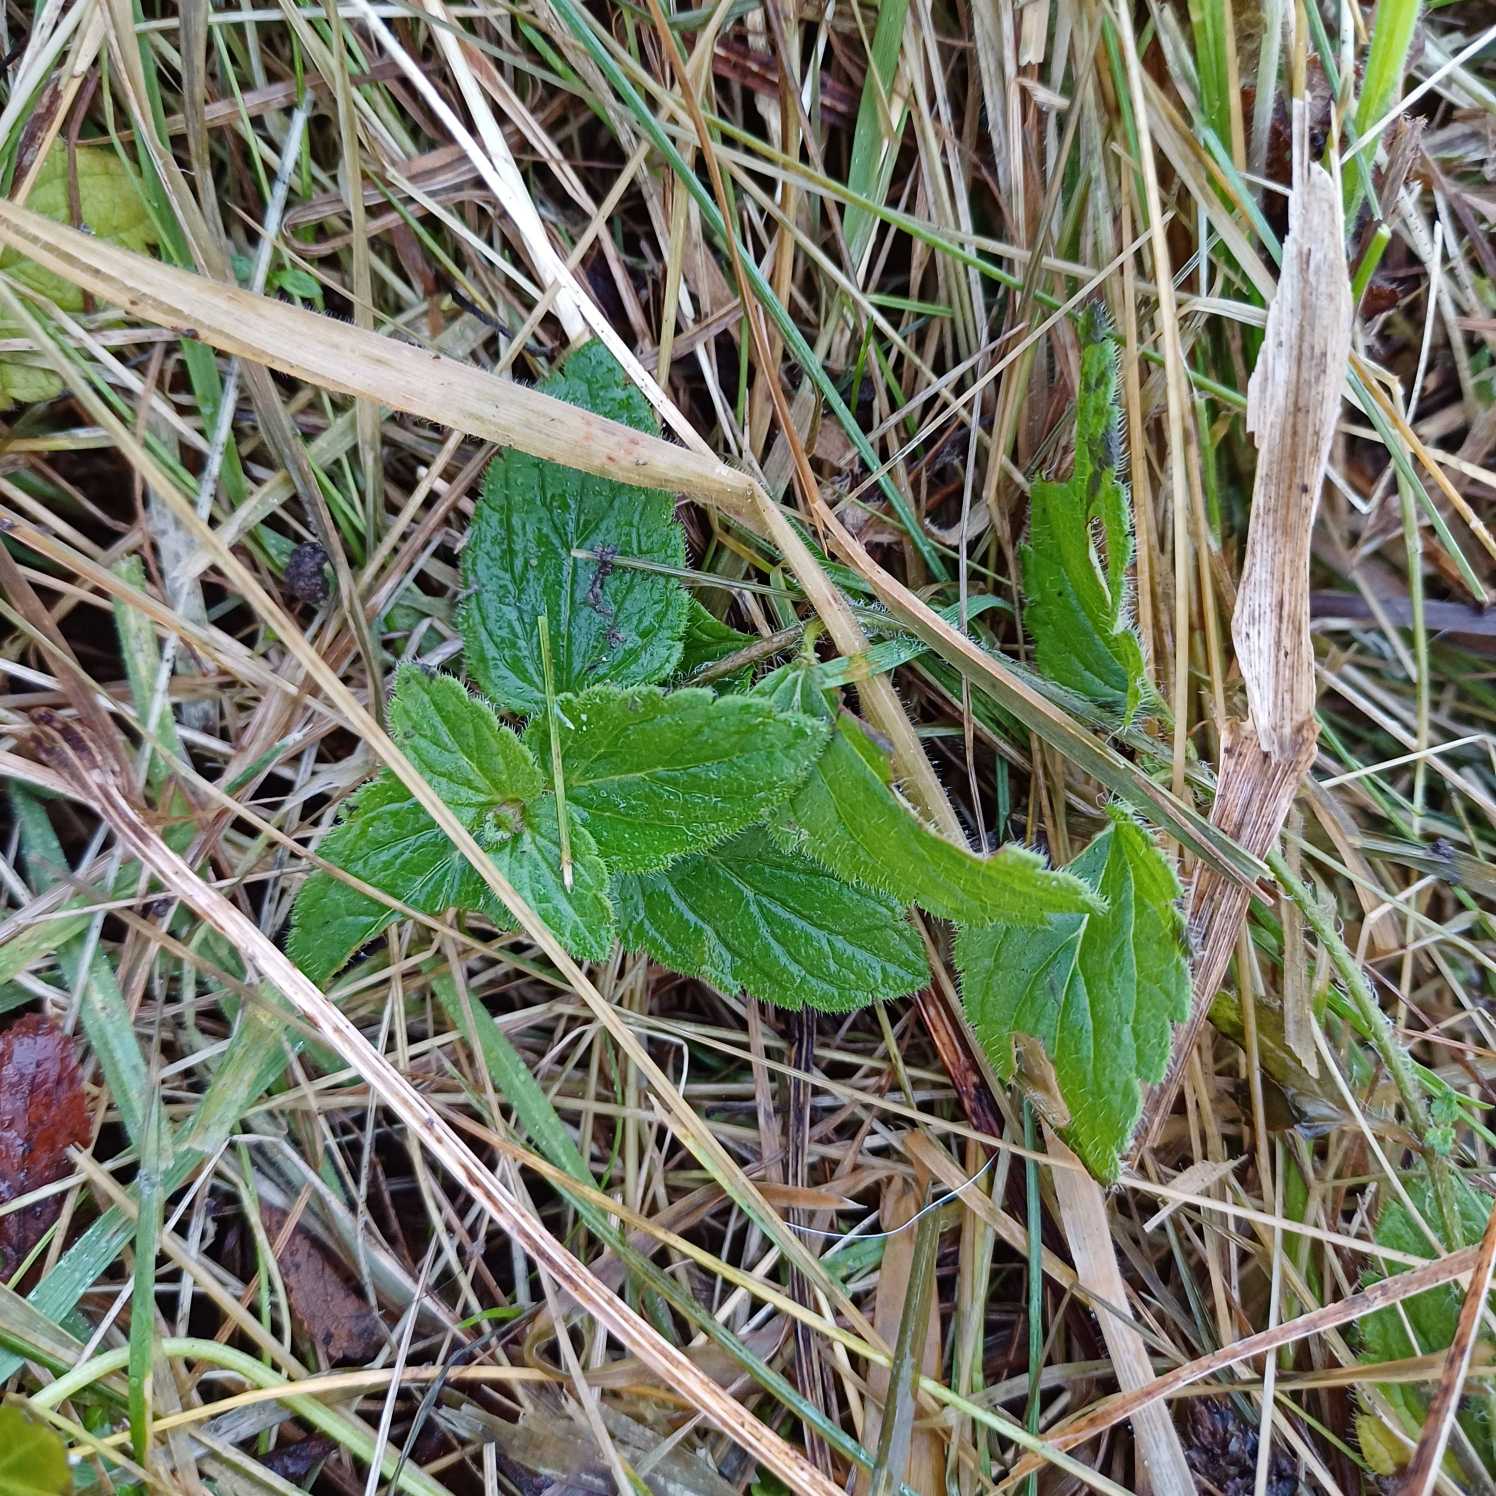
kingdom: Plantae
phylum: Tracheophyta
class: Magnoliopsida
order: Lamiales
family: Plantaginaceae
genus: Veronica
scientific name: Veronica chamaedrys
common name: Tveskægget ærenpris
